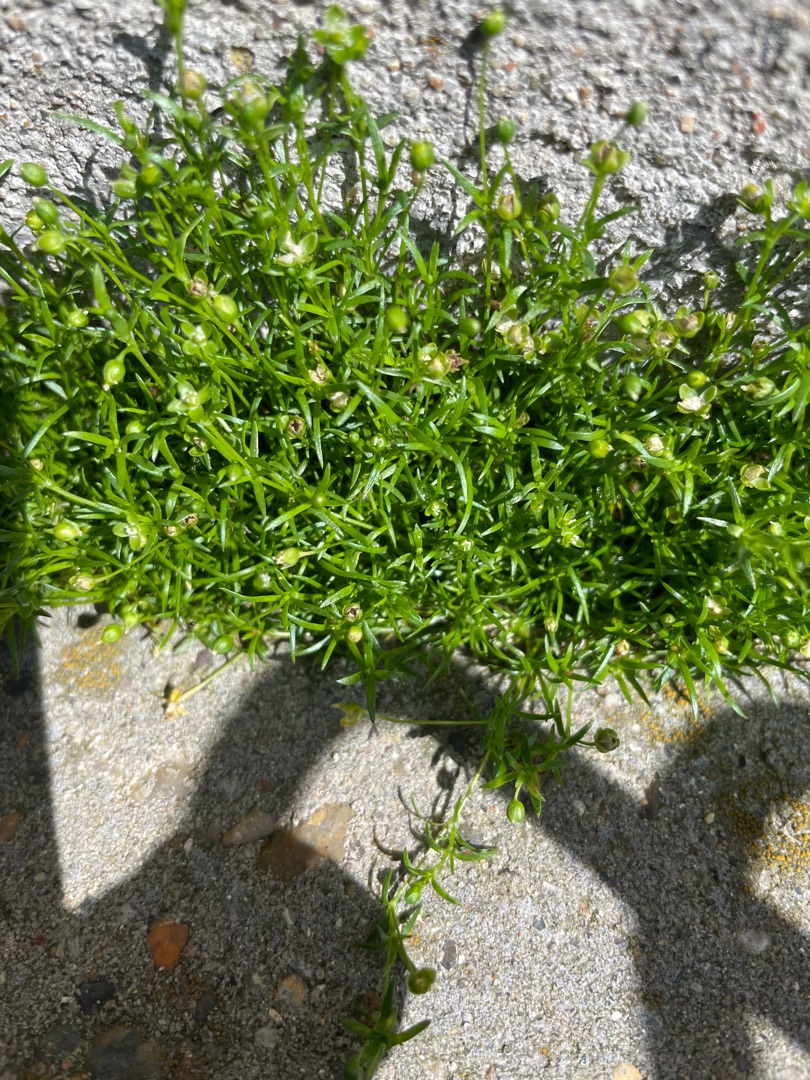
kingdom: Plantae
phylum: Tracheophyta
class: Magnoliopsida
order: Caryophyllales
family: Caryophyllaceae
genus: Sagina
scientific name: Sagina procumbens
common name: Almindelig firling
